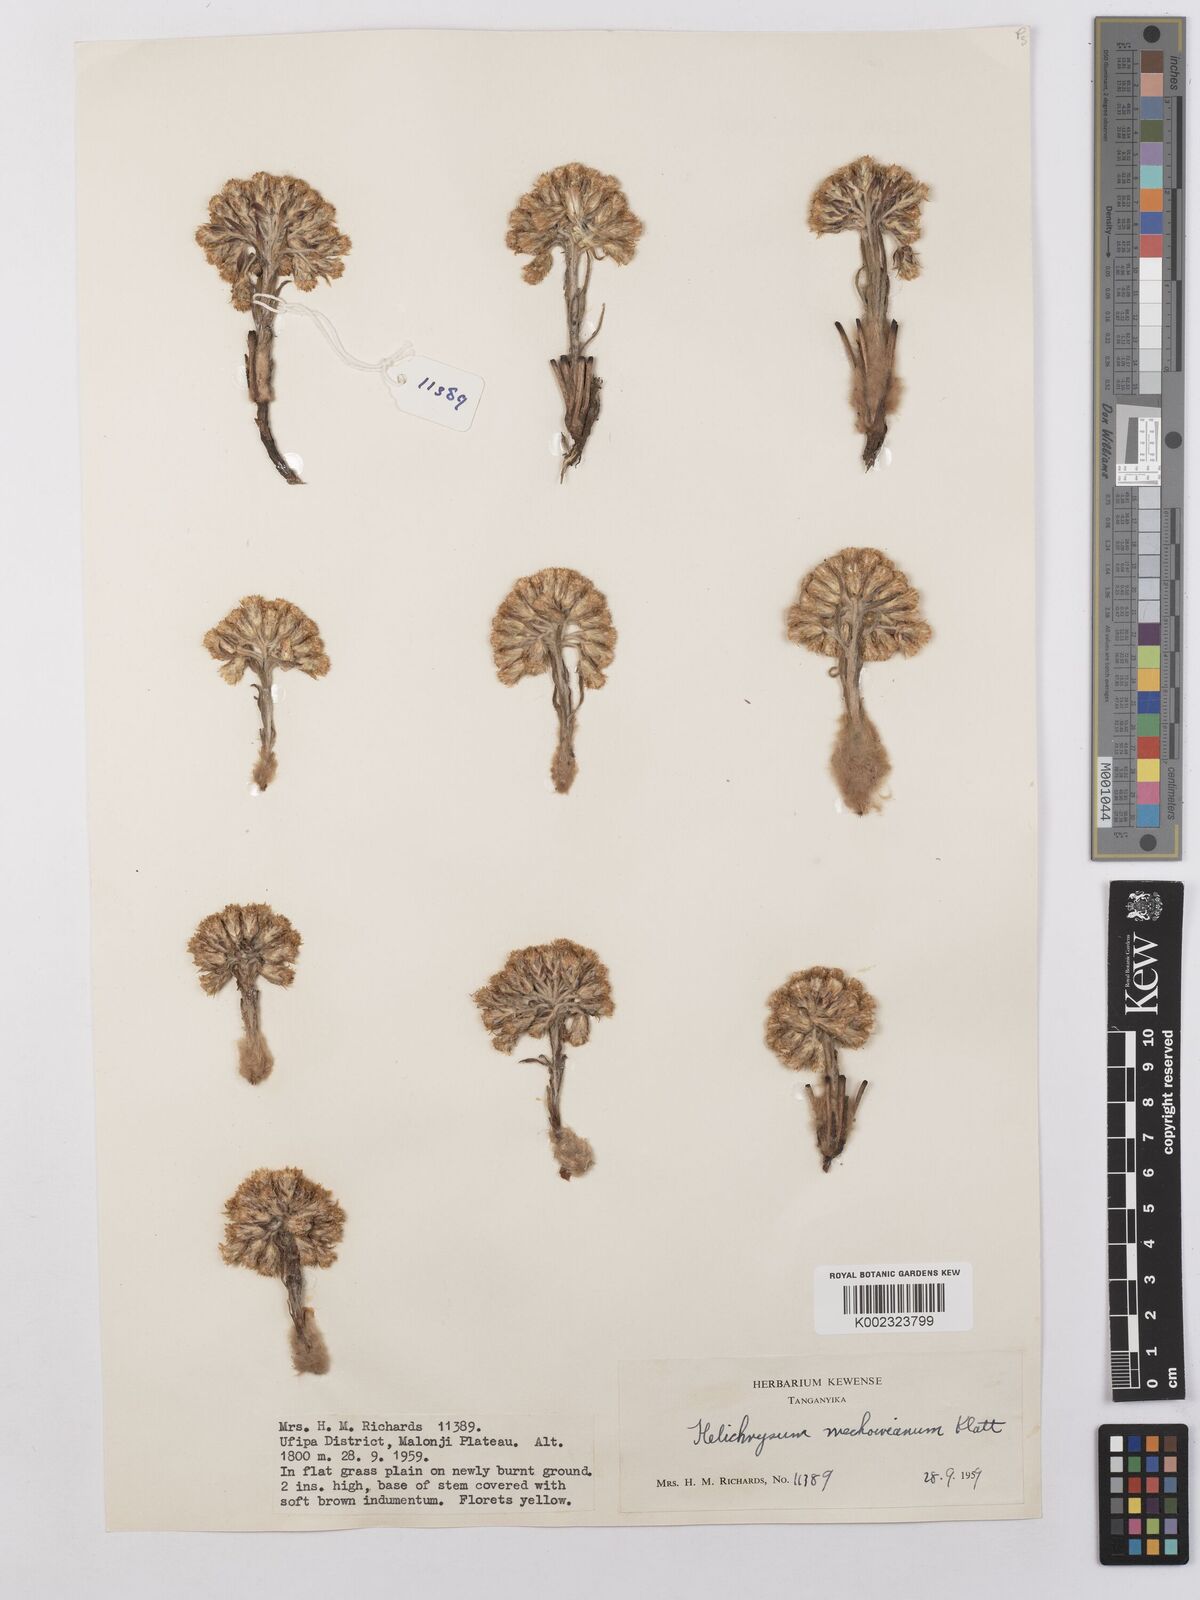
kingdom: Plantae
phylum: Tracheophyta
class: Magnoliopsida
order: Asterales
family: Asteraceae
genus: Helichrysum
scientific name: Helichrysum mechowianum
